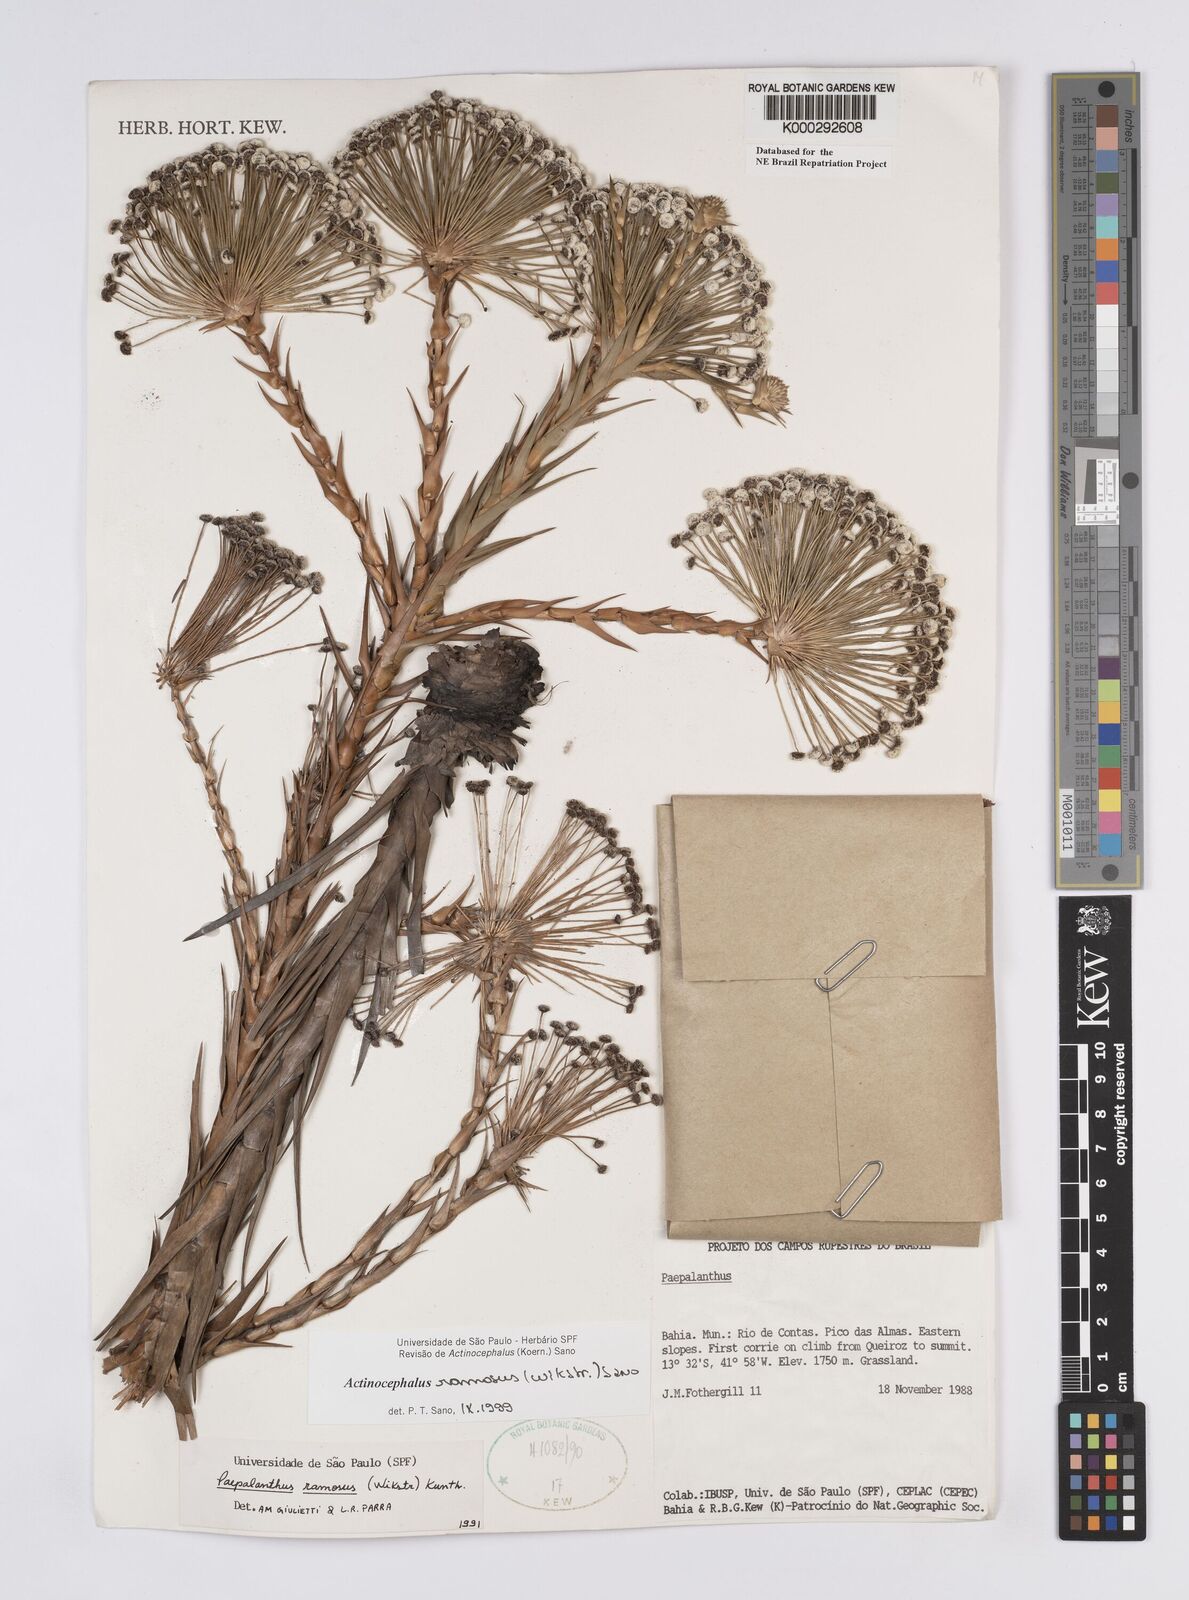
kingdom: Plantae
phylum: Tracheophyta
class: Liliopsida
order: Poales
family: Eriocaulaceae
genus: Paepalanthus
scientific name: Paepalanthus ramosus
